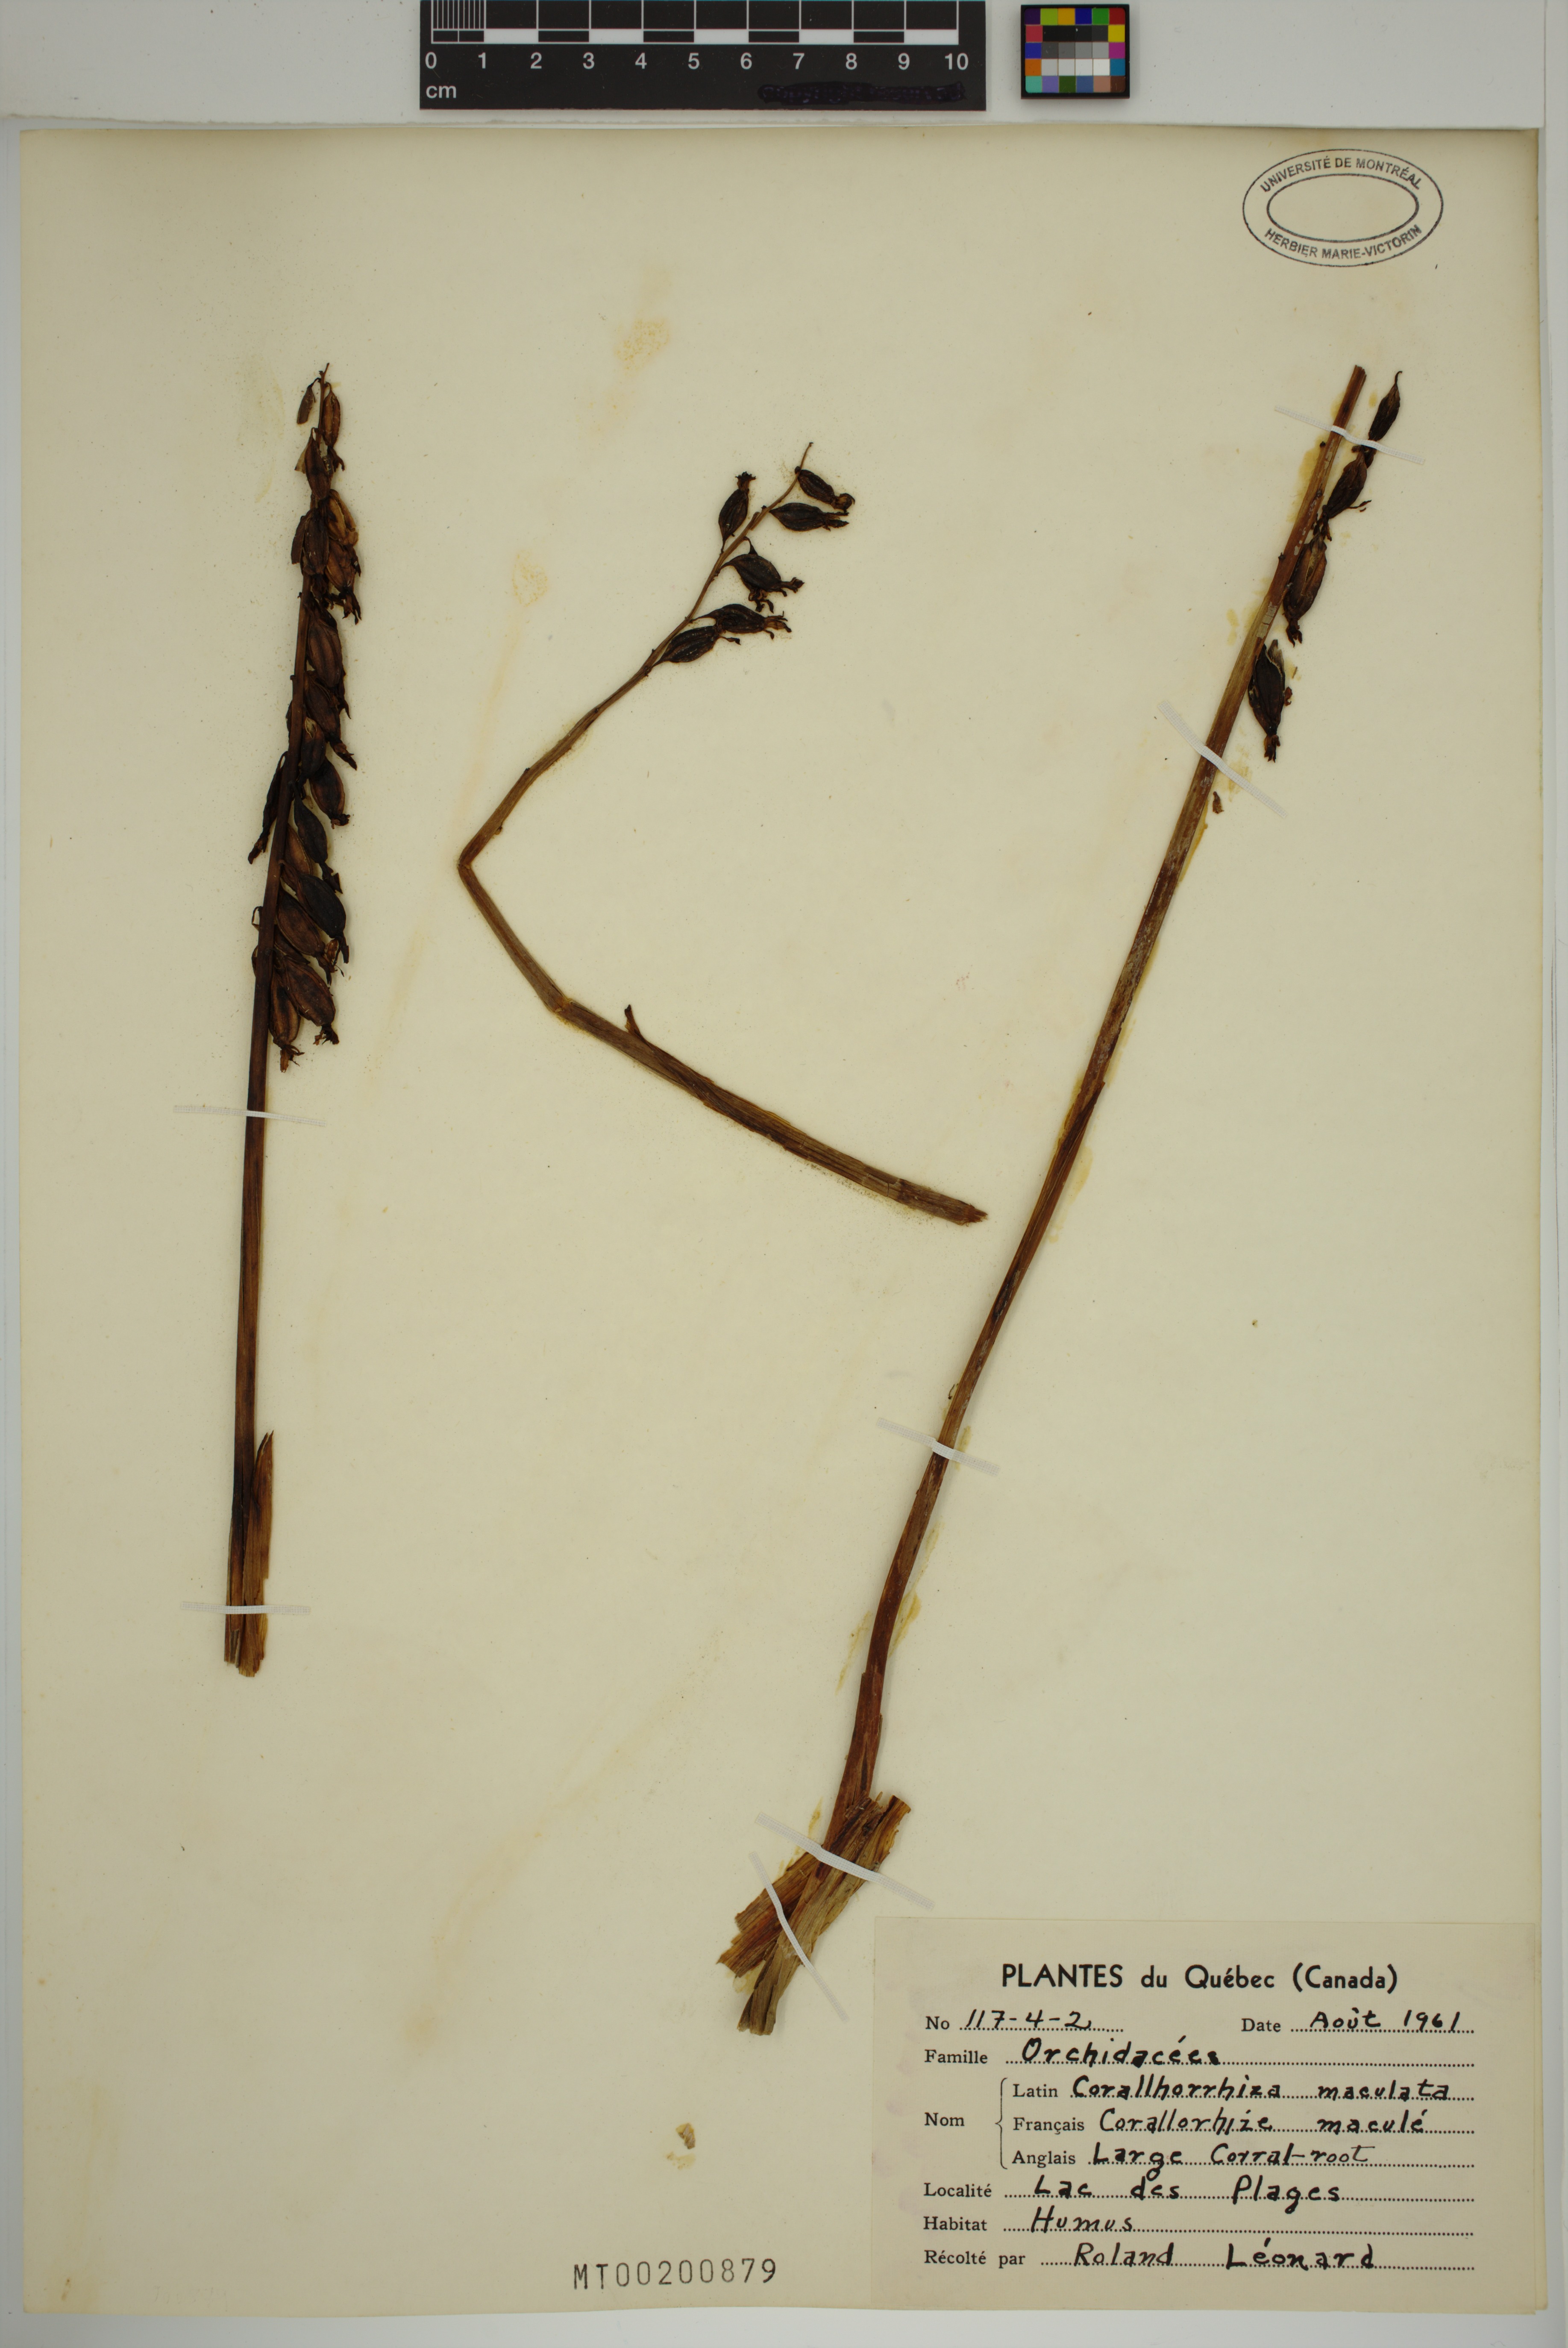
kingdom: Plantae
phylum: Tracheophyta
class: Liliopsida
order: Asparagales
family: Orchidaceae
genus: Corallorhiza
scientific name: Corallorhiza maculata
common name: Spotted coralroot
